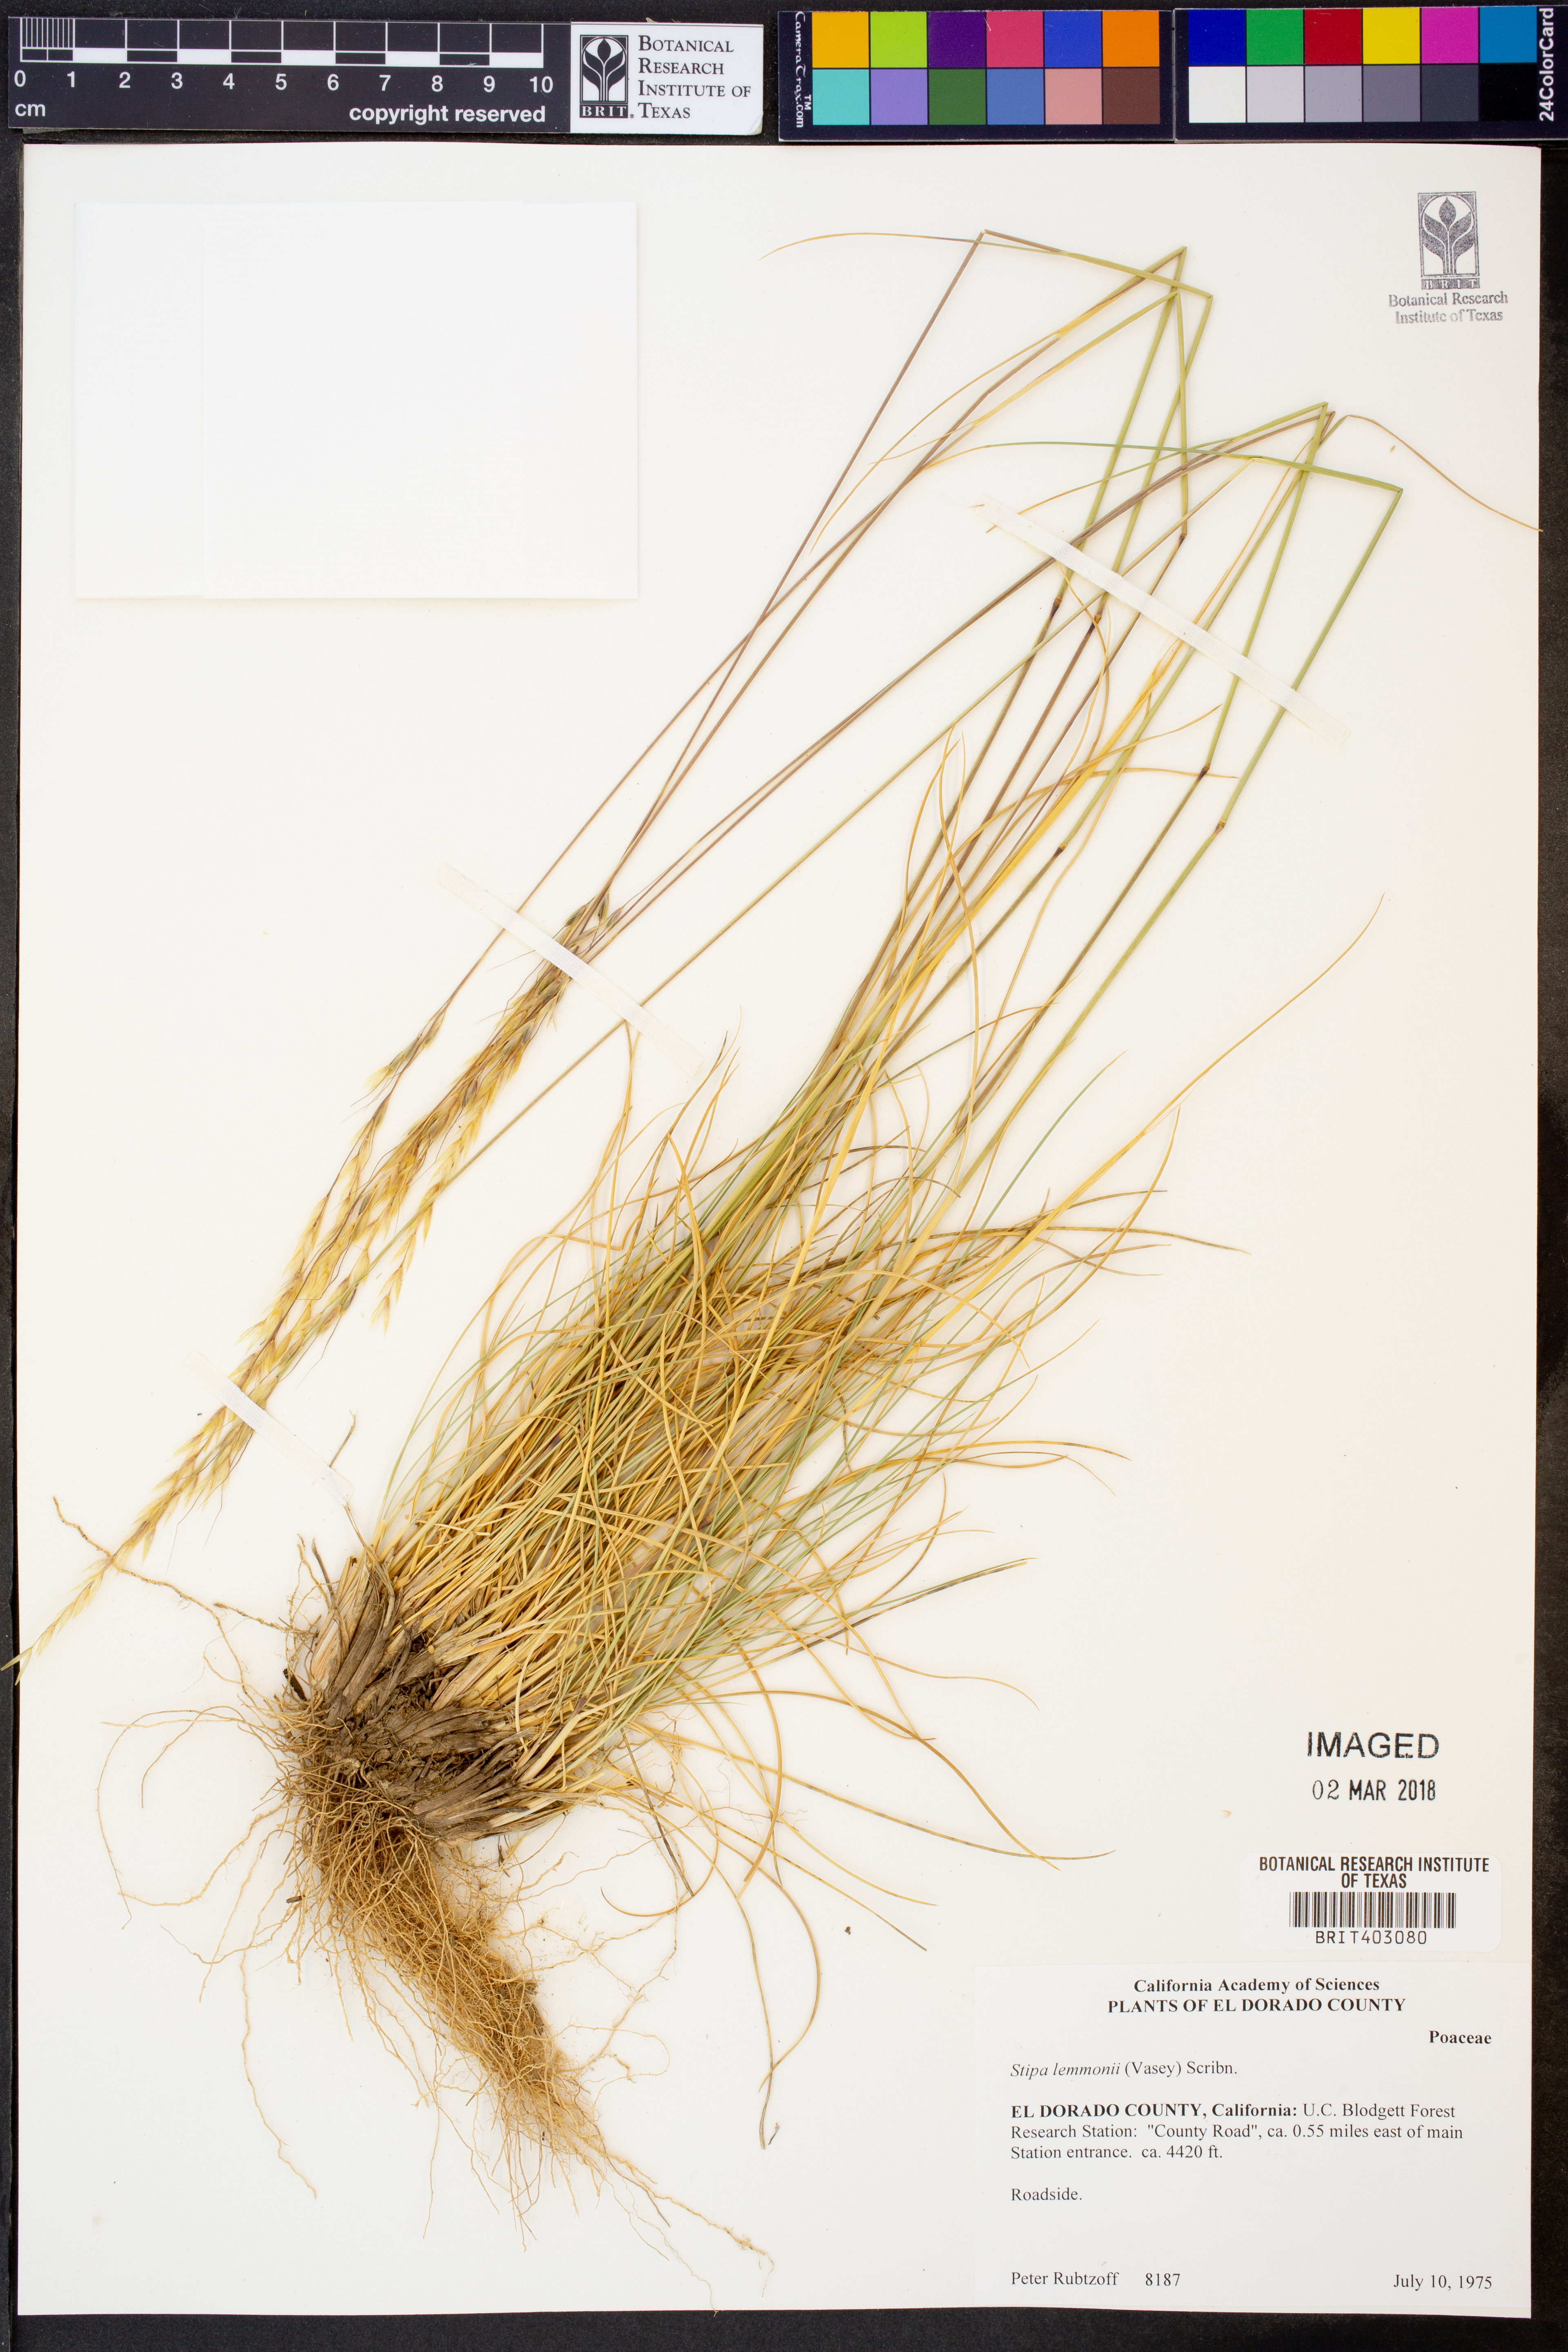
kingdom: Plantae
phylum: Tracheophyta
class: Liliopsida
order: Poales
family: Poaceae
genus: Eriocoma
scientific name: Eriocoma lemmonii
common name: Lemmon's needlegrass
